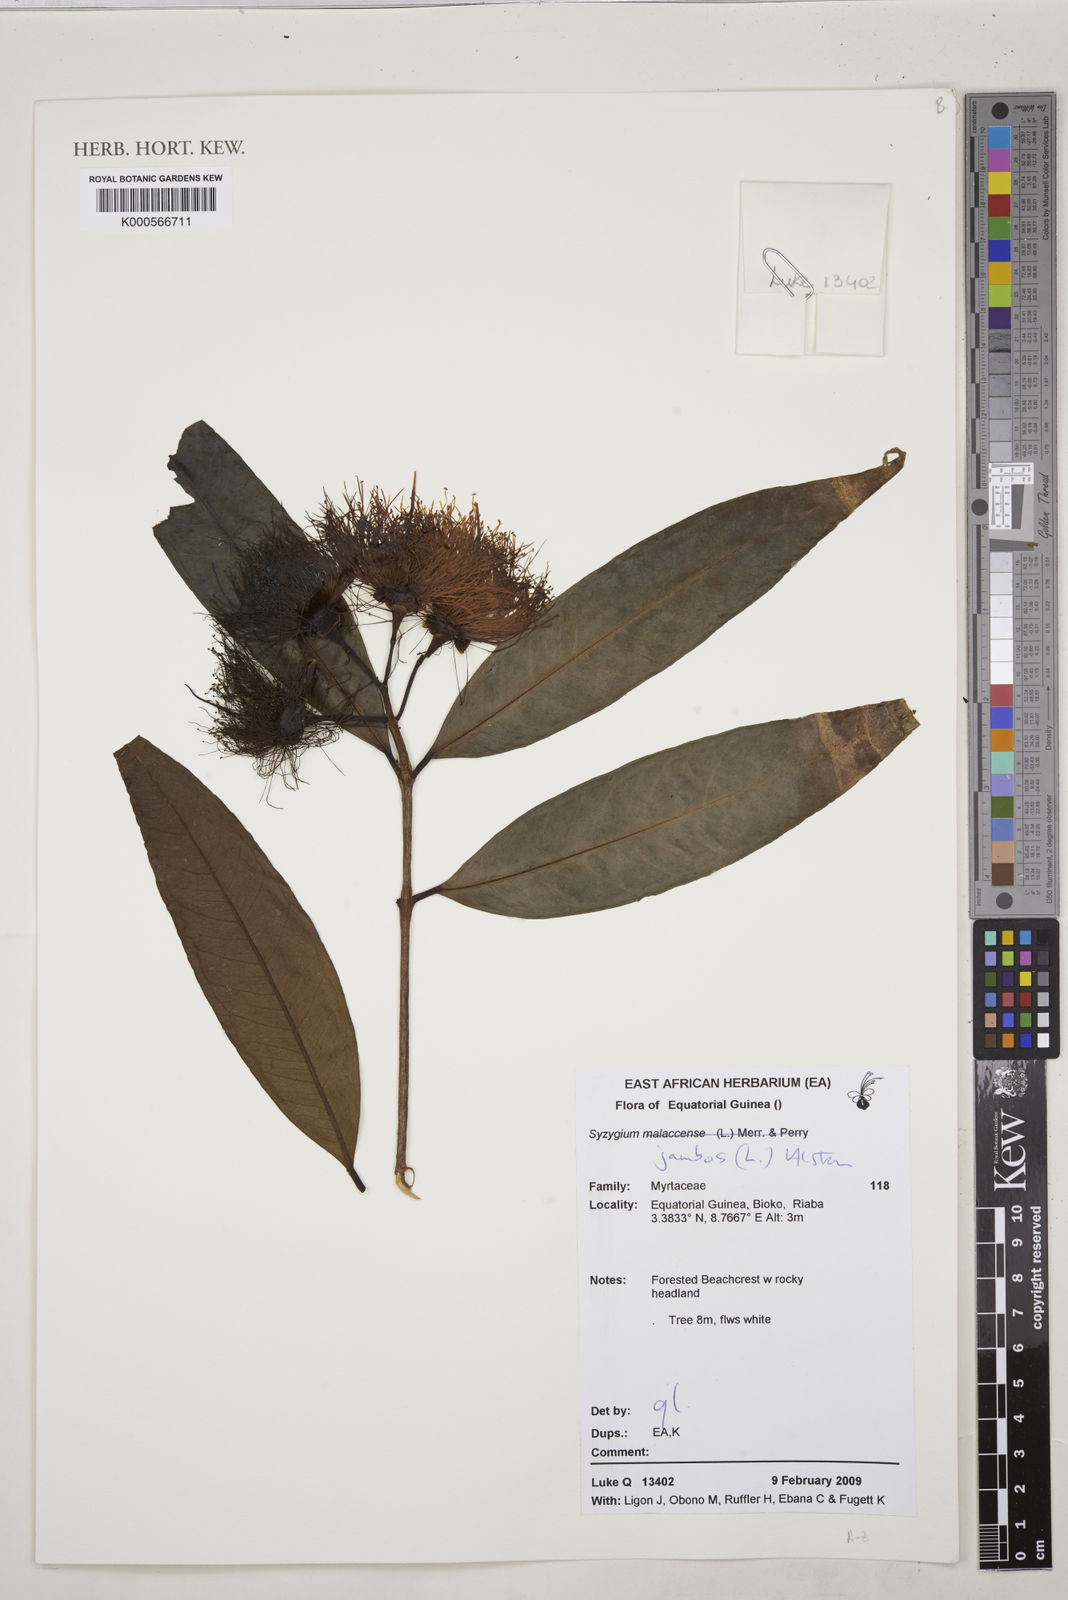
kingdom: Plantae
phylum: Tracheophyta
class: Magnoliopsida
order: Myrtales
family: Myrtaceae
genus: Syzygium
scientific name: Syzygium jambos
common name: Malabar plum
